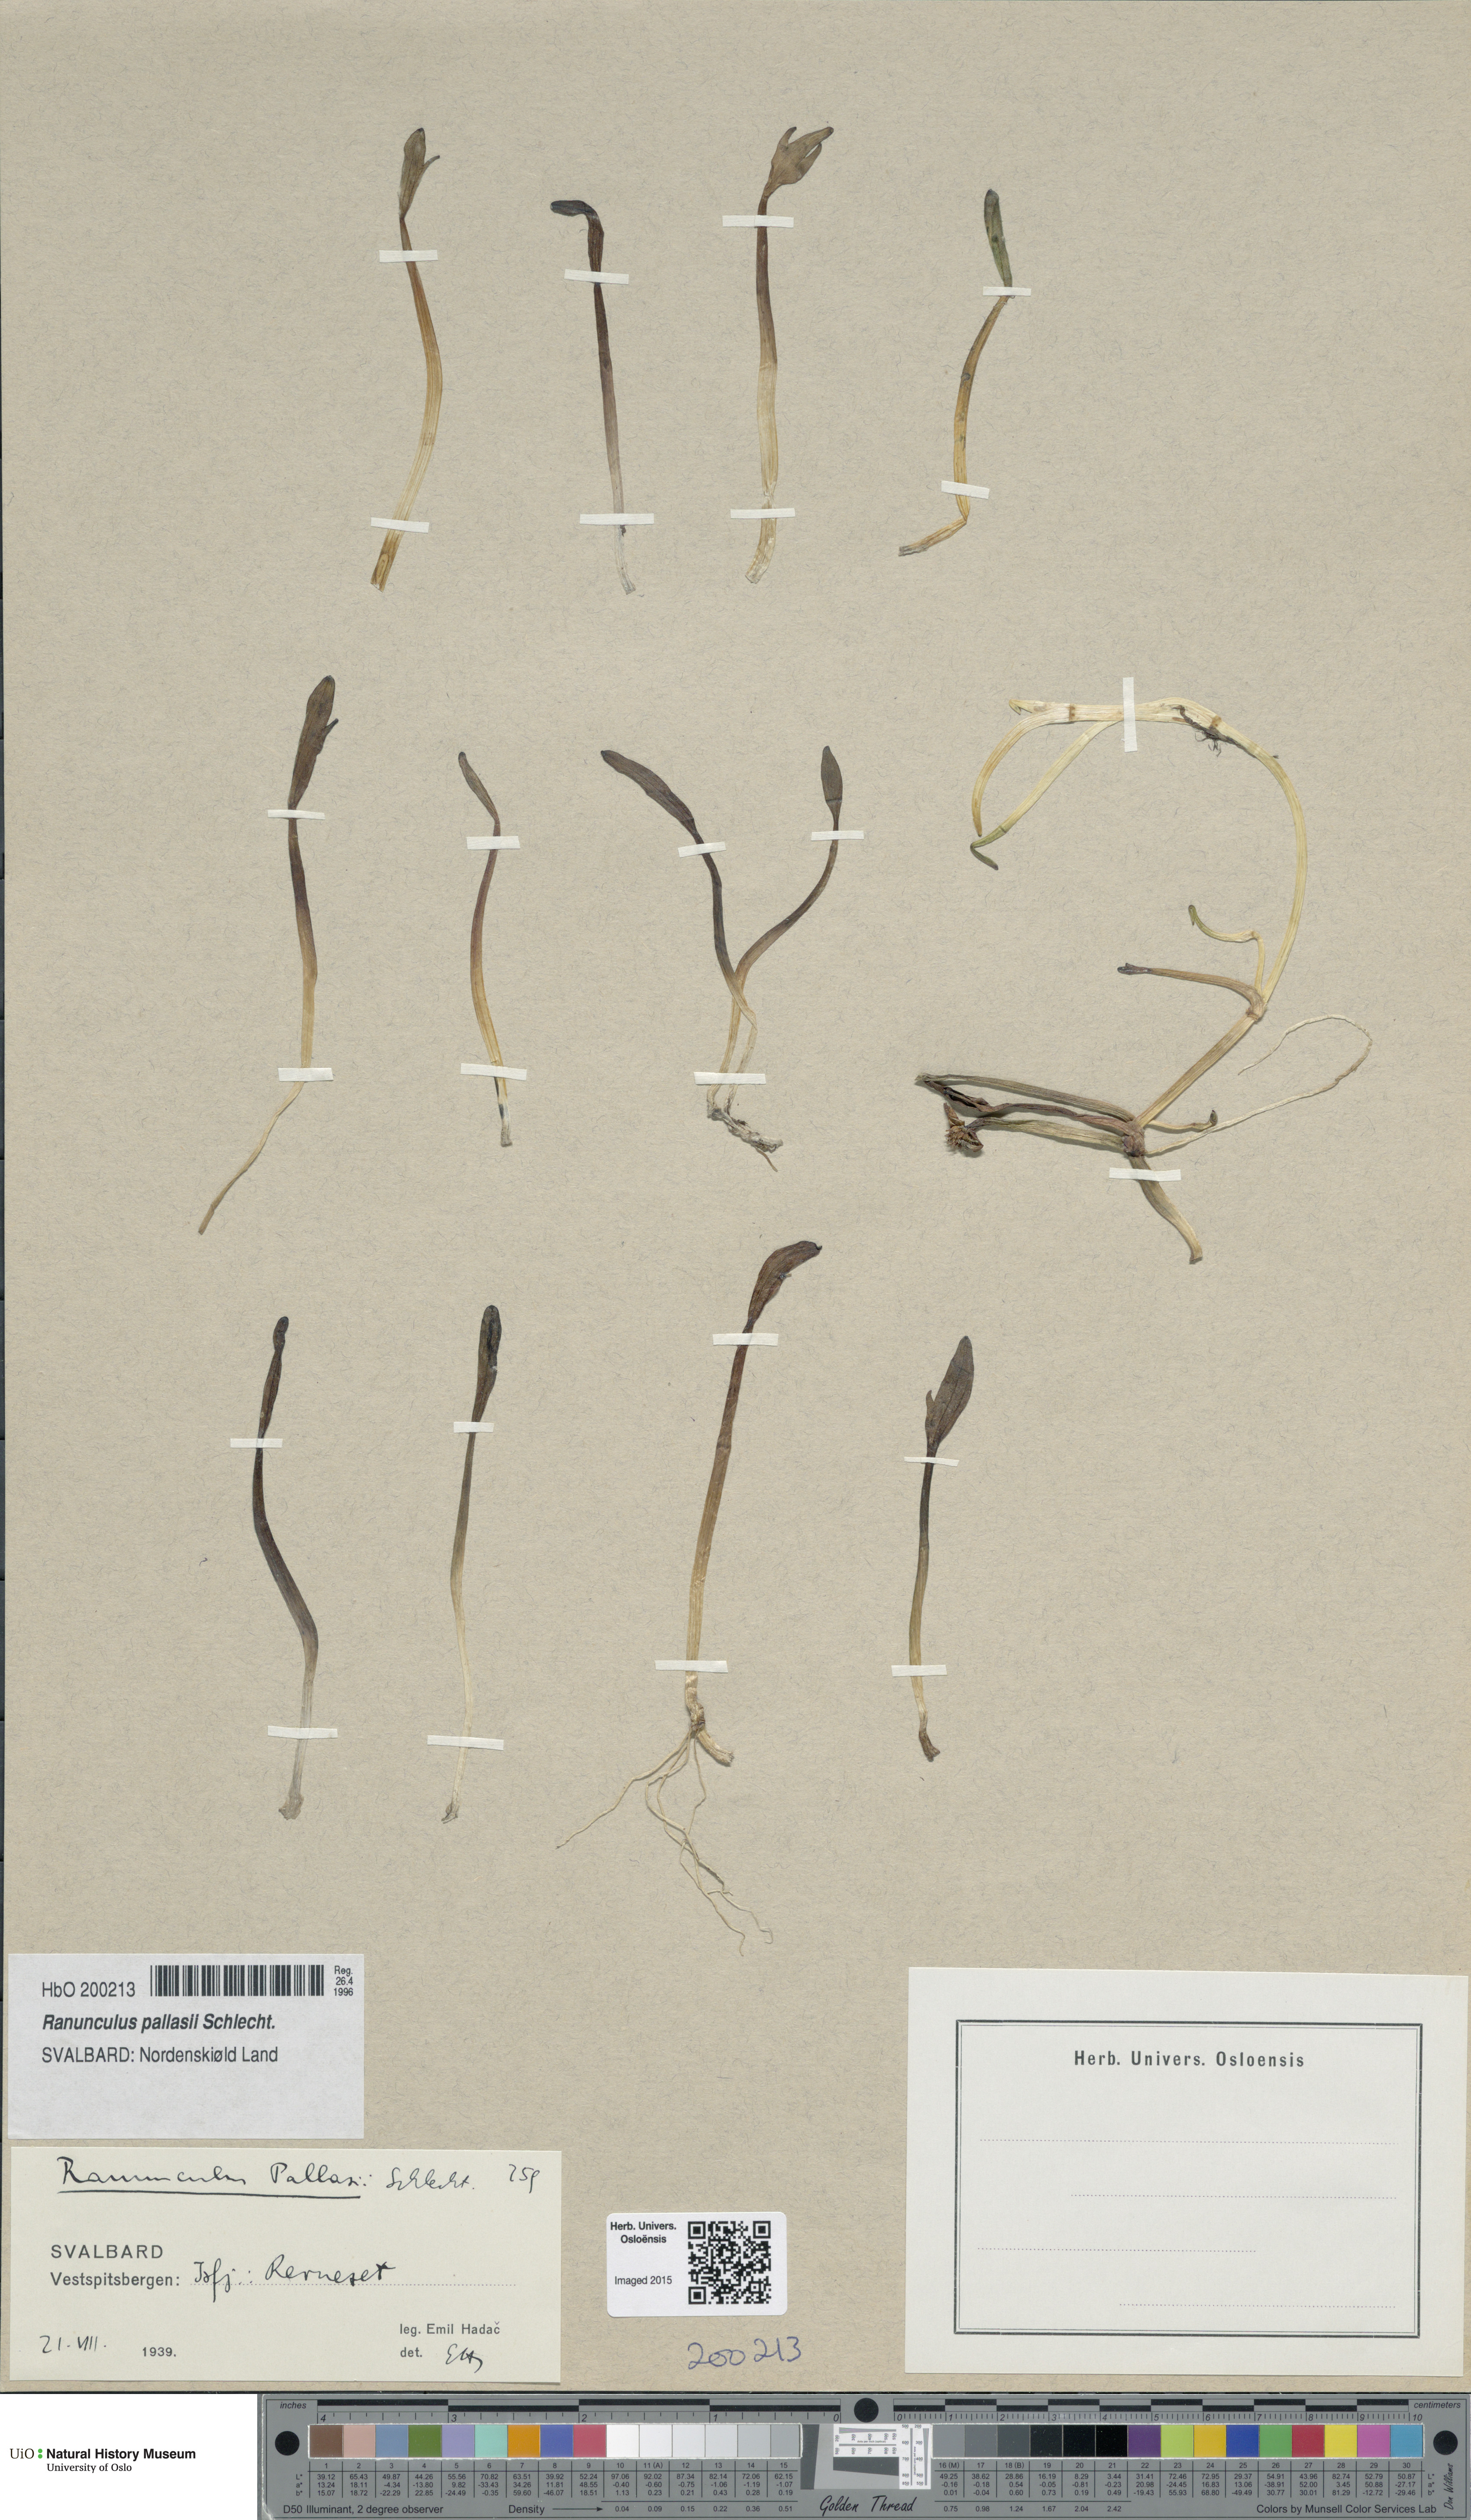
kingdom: Plantae
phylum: Tracheophyta
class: Magnoliopsida
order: Ranunculales
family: Ranunculaceae
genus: Coptidium
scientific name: Coptidium pallasii
